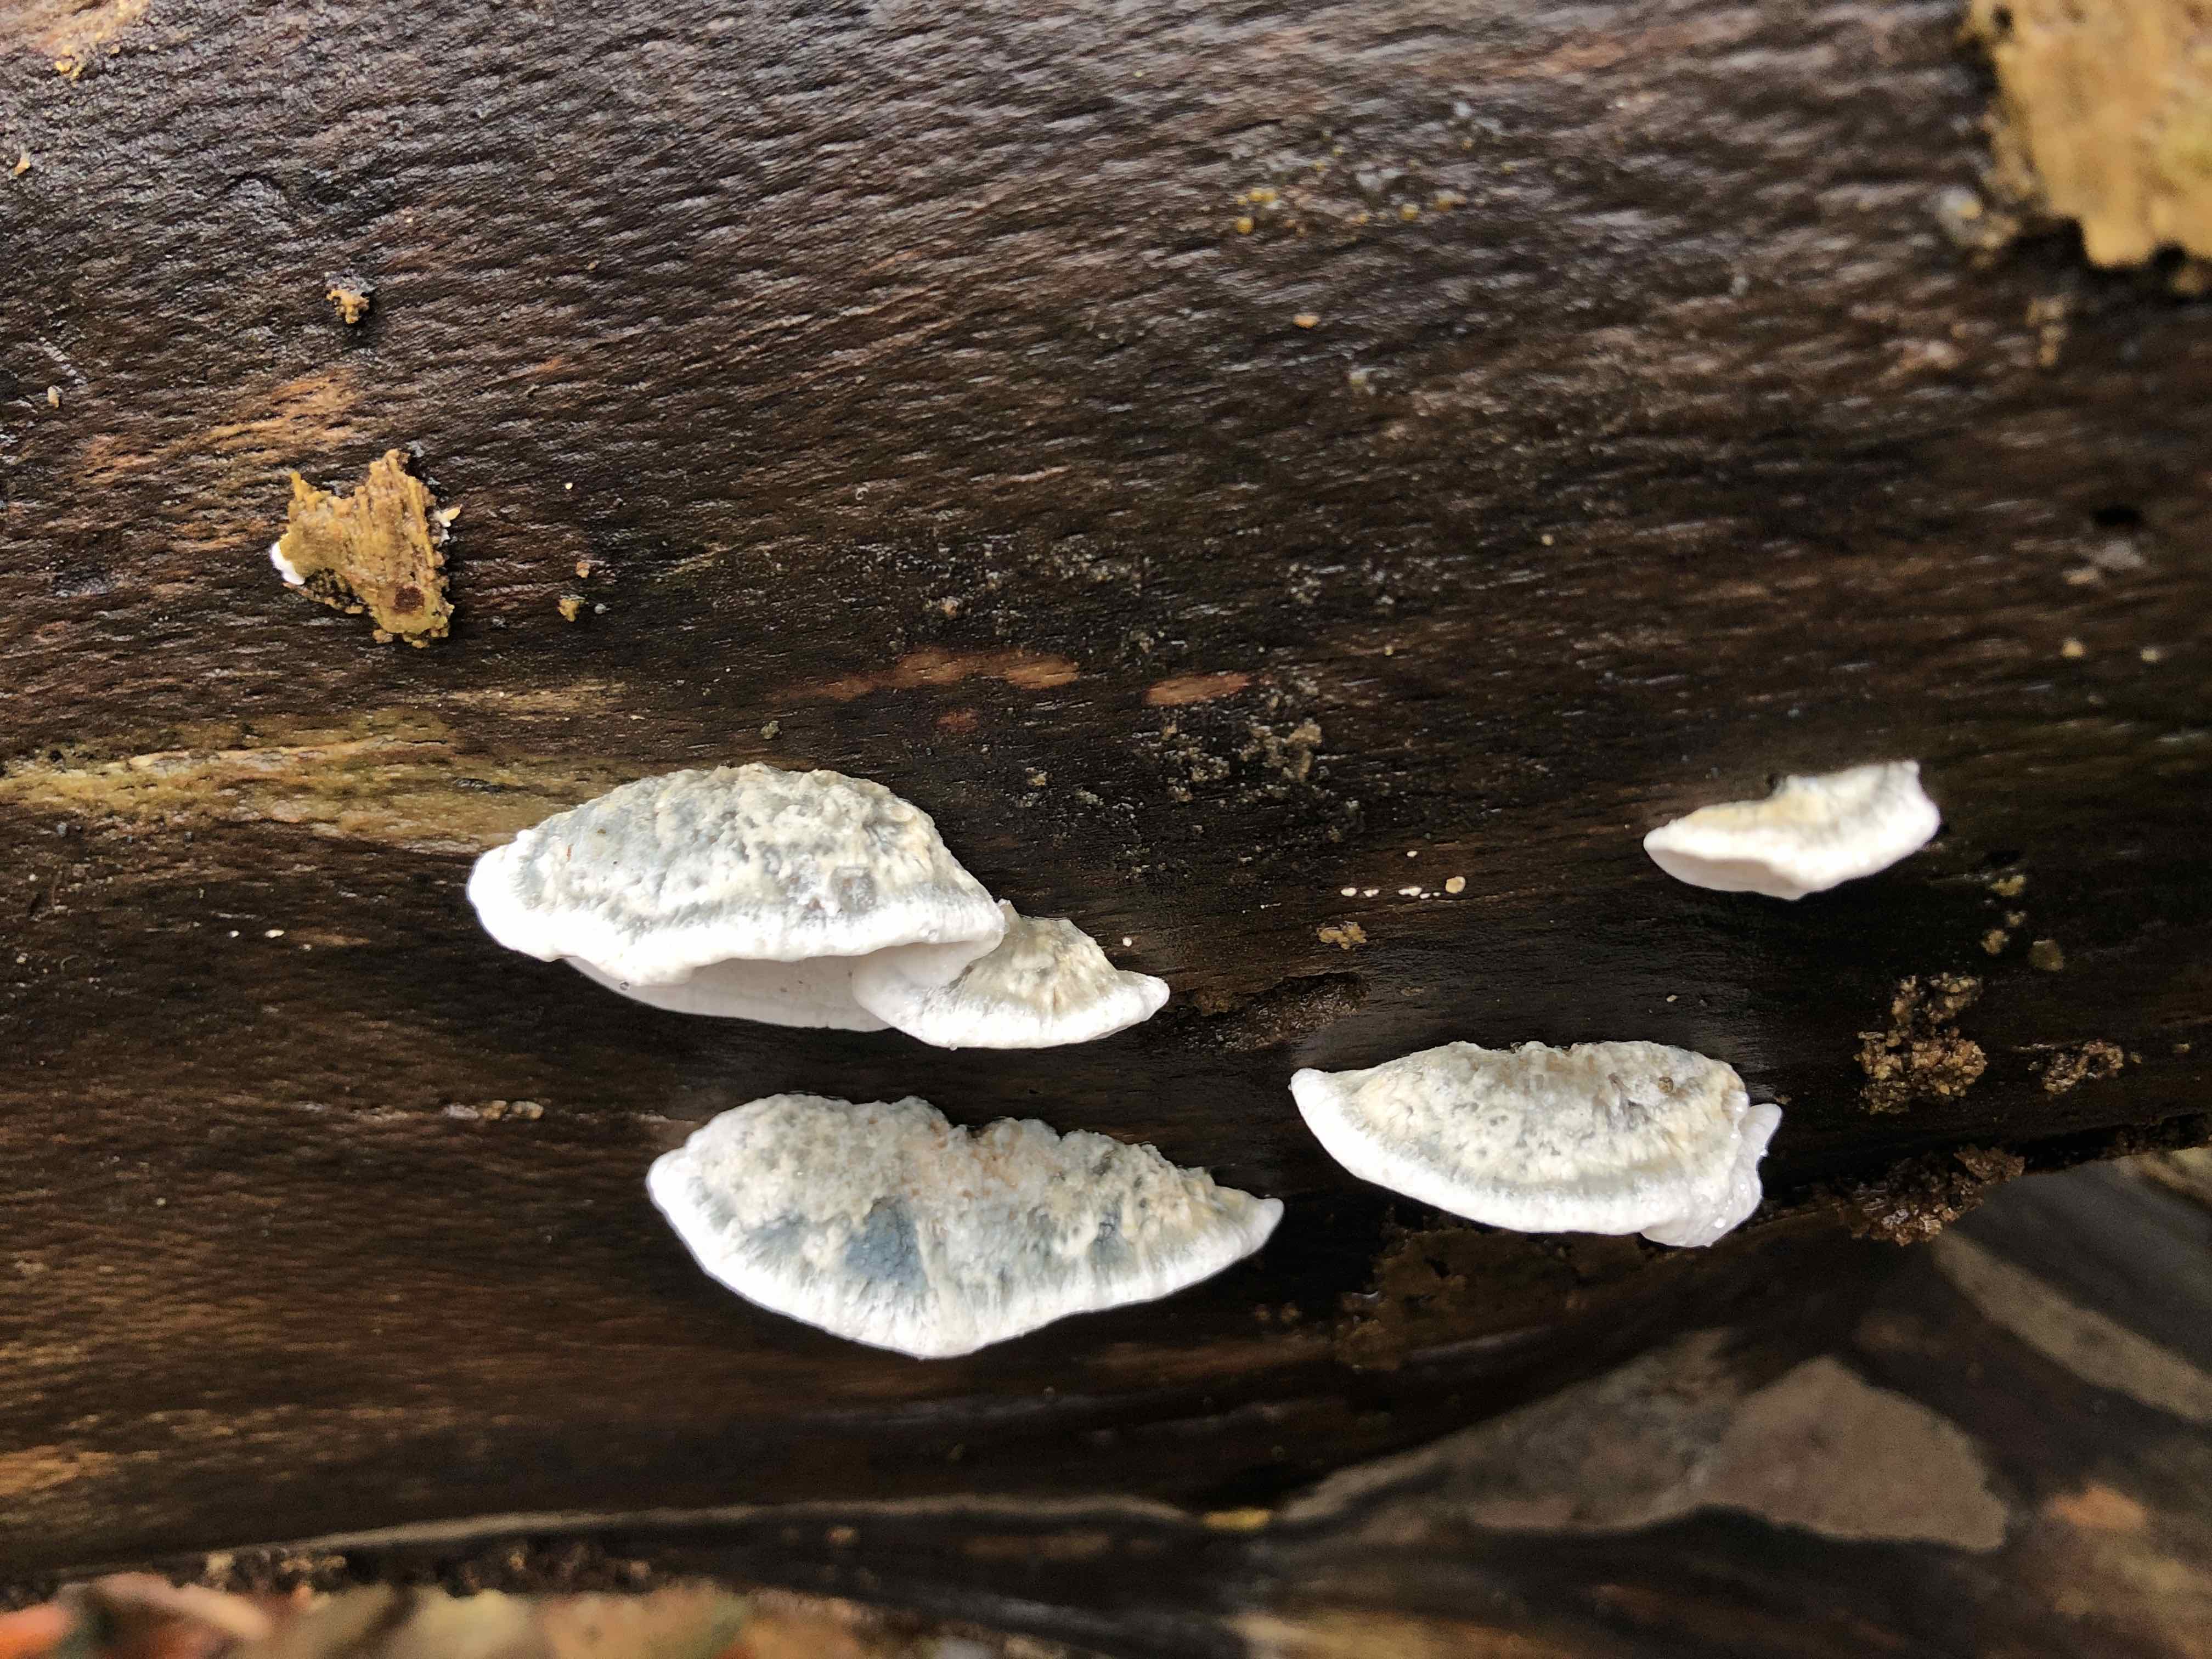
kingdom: Fungi
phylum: Basidiomycota
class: Agaricomycetes
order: Polyporales
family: Polyporaceae
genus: Cyanosporus
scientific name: Cyanosporus alni
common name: blegblå kødporesvamp
